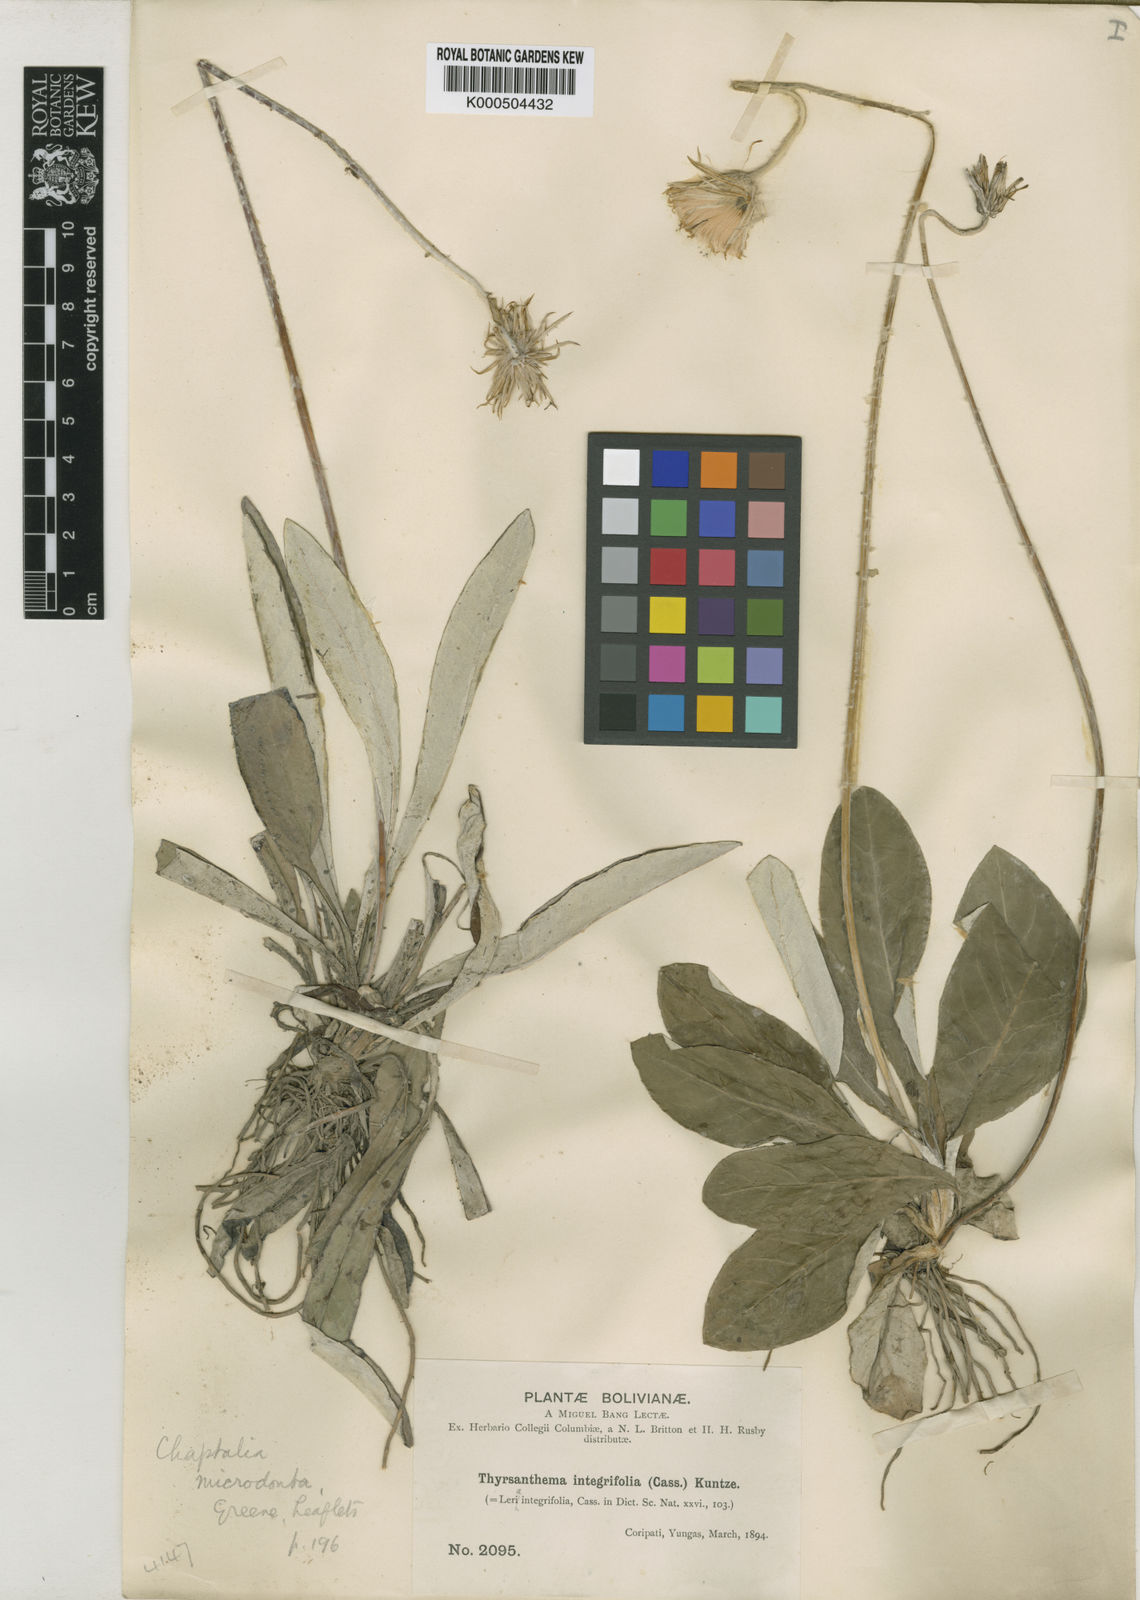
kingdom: Plantae
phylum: Tracheophyta
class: Magnoliopsida
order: Asterales
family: Asteraceae
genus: Chaptalia
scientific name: Chaptalia integerrima
